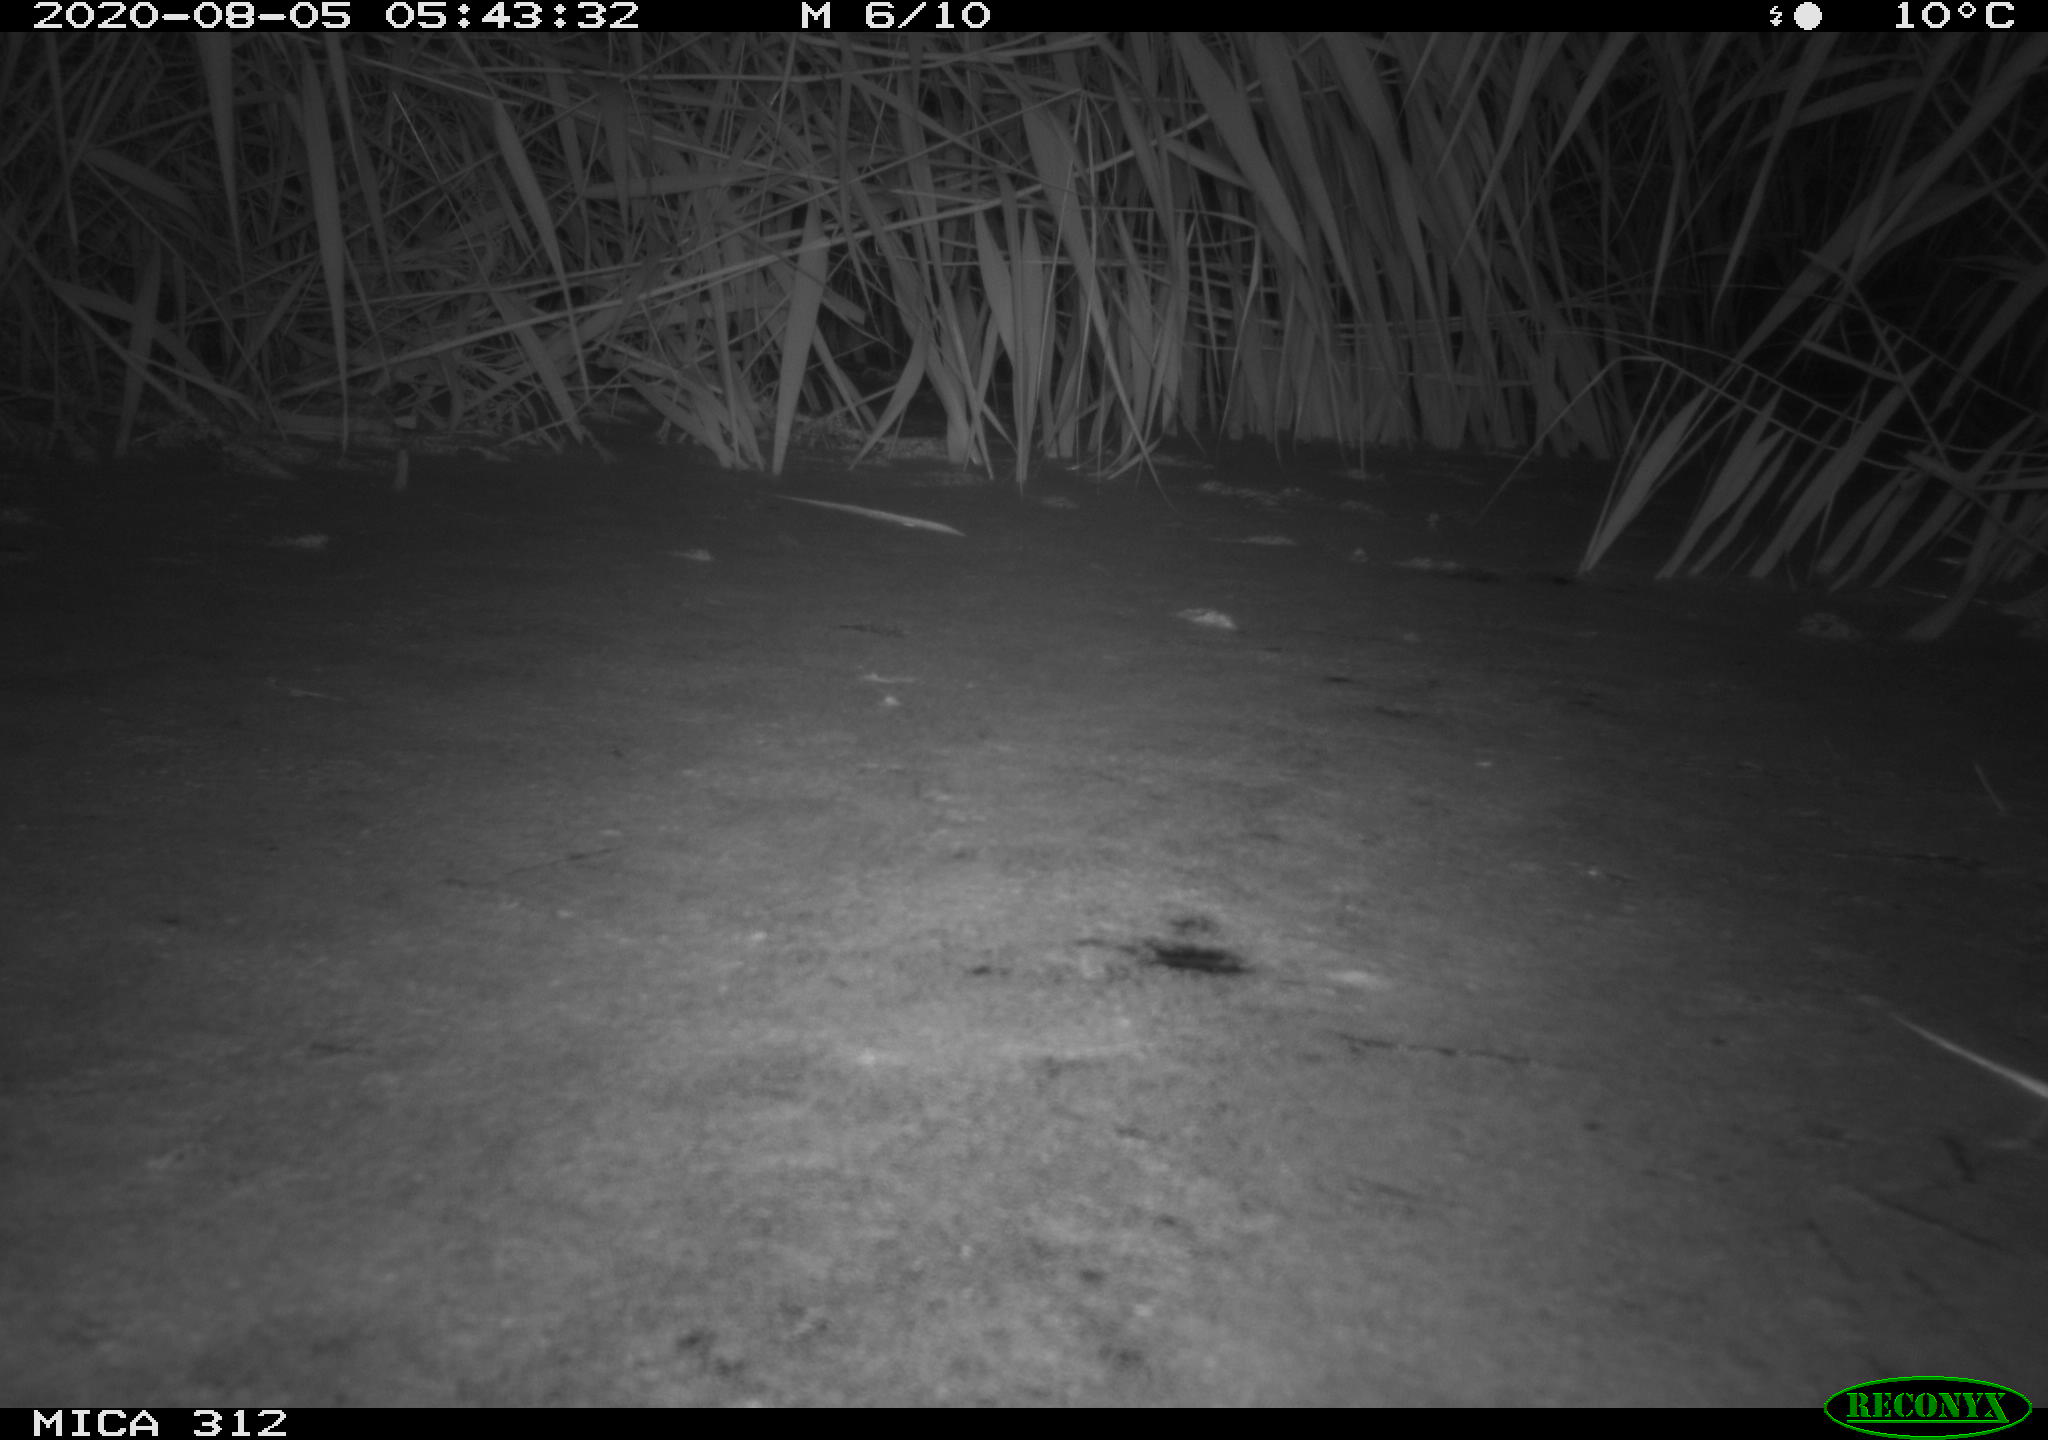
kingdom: Animalia
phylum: Chordata
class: Mammalia
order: Rodentia
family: Cricetidae
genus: Ondatra
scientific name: Ondatra zibethicus
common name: Muskrat
